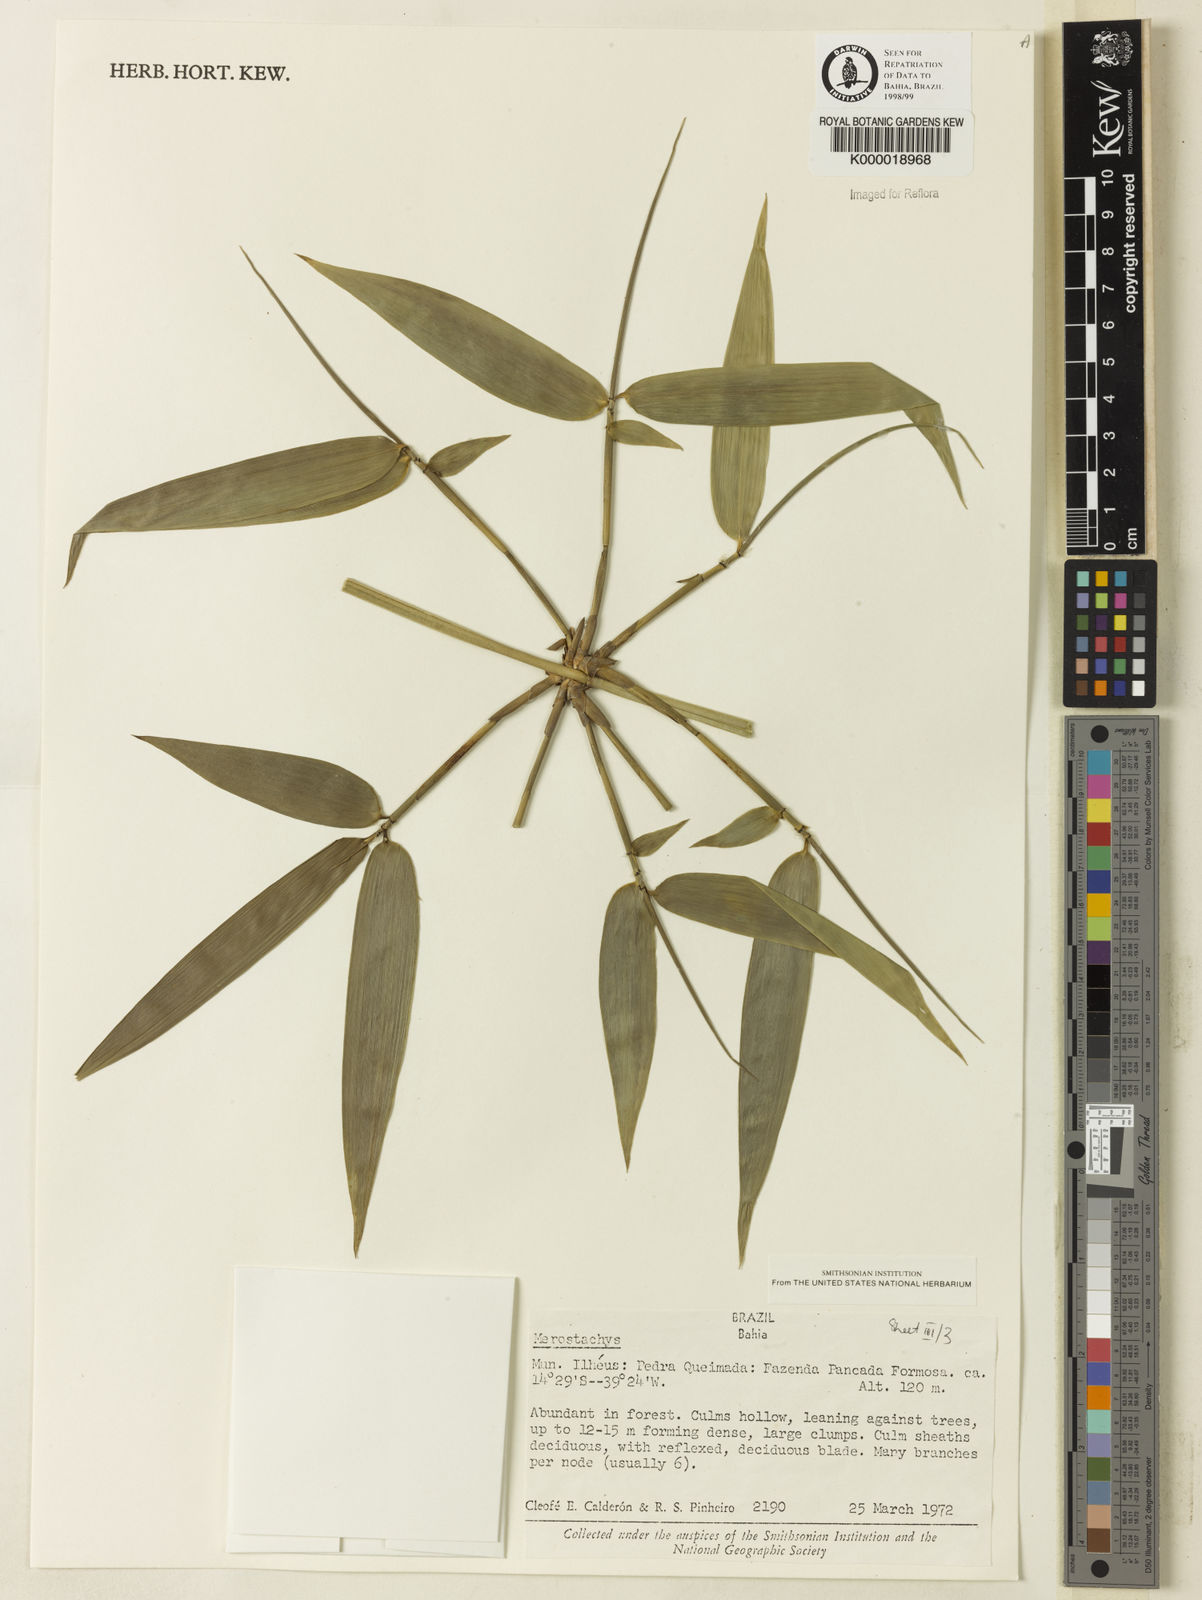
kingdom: Plantae
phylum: Tracheophyta
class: Liliopsida
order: Poales
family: Poaceae
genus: Merostachys
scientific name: Merostachys
